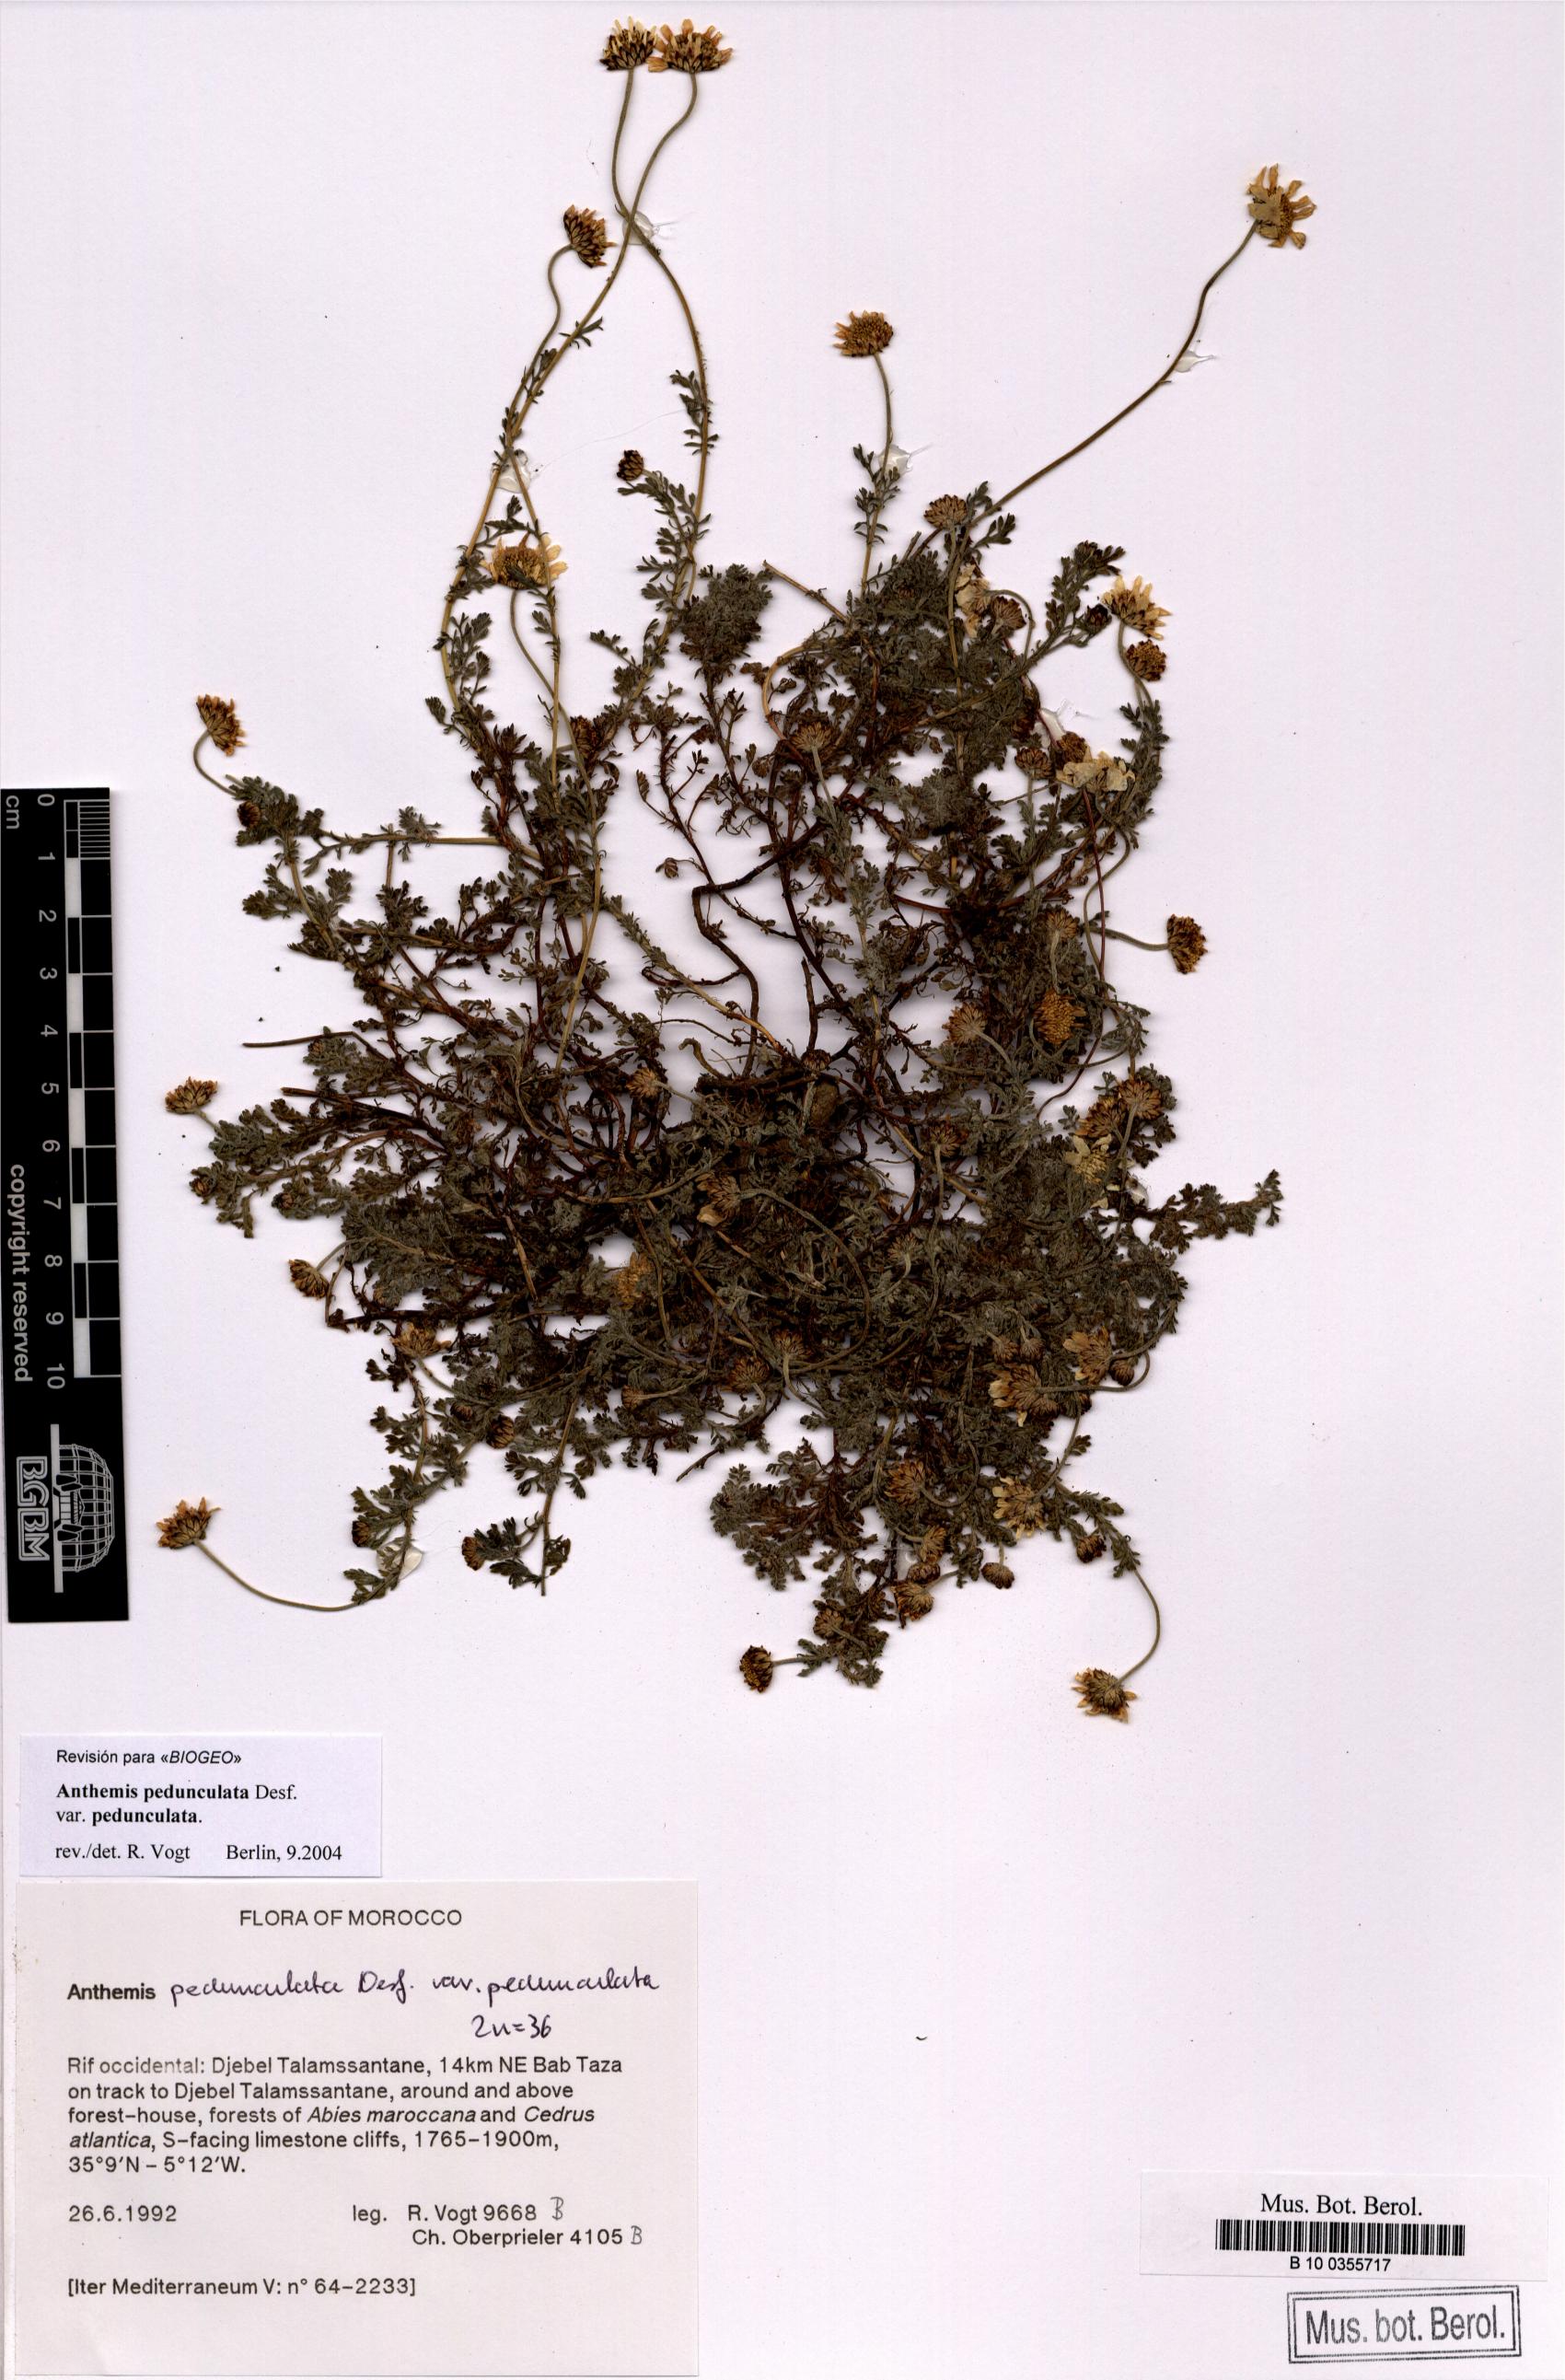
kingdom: Plantae
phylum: Tracheophyta
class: Magnoliopsida
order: Asterales
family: Asteraceae
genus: Anthemis
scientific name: Anthemis pedunculata
